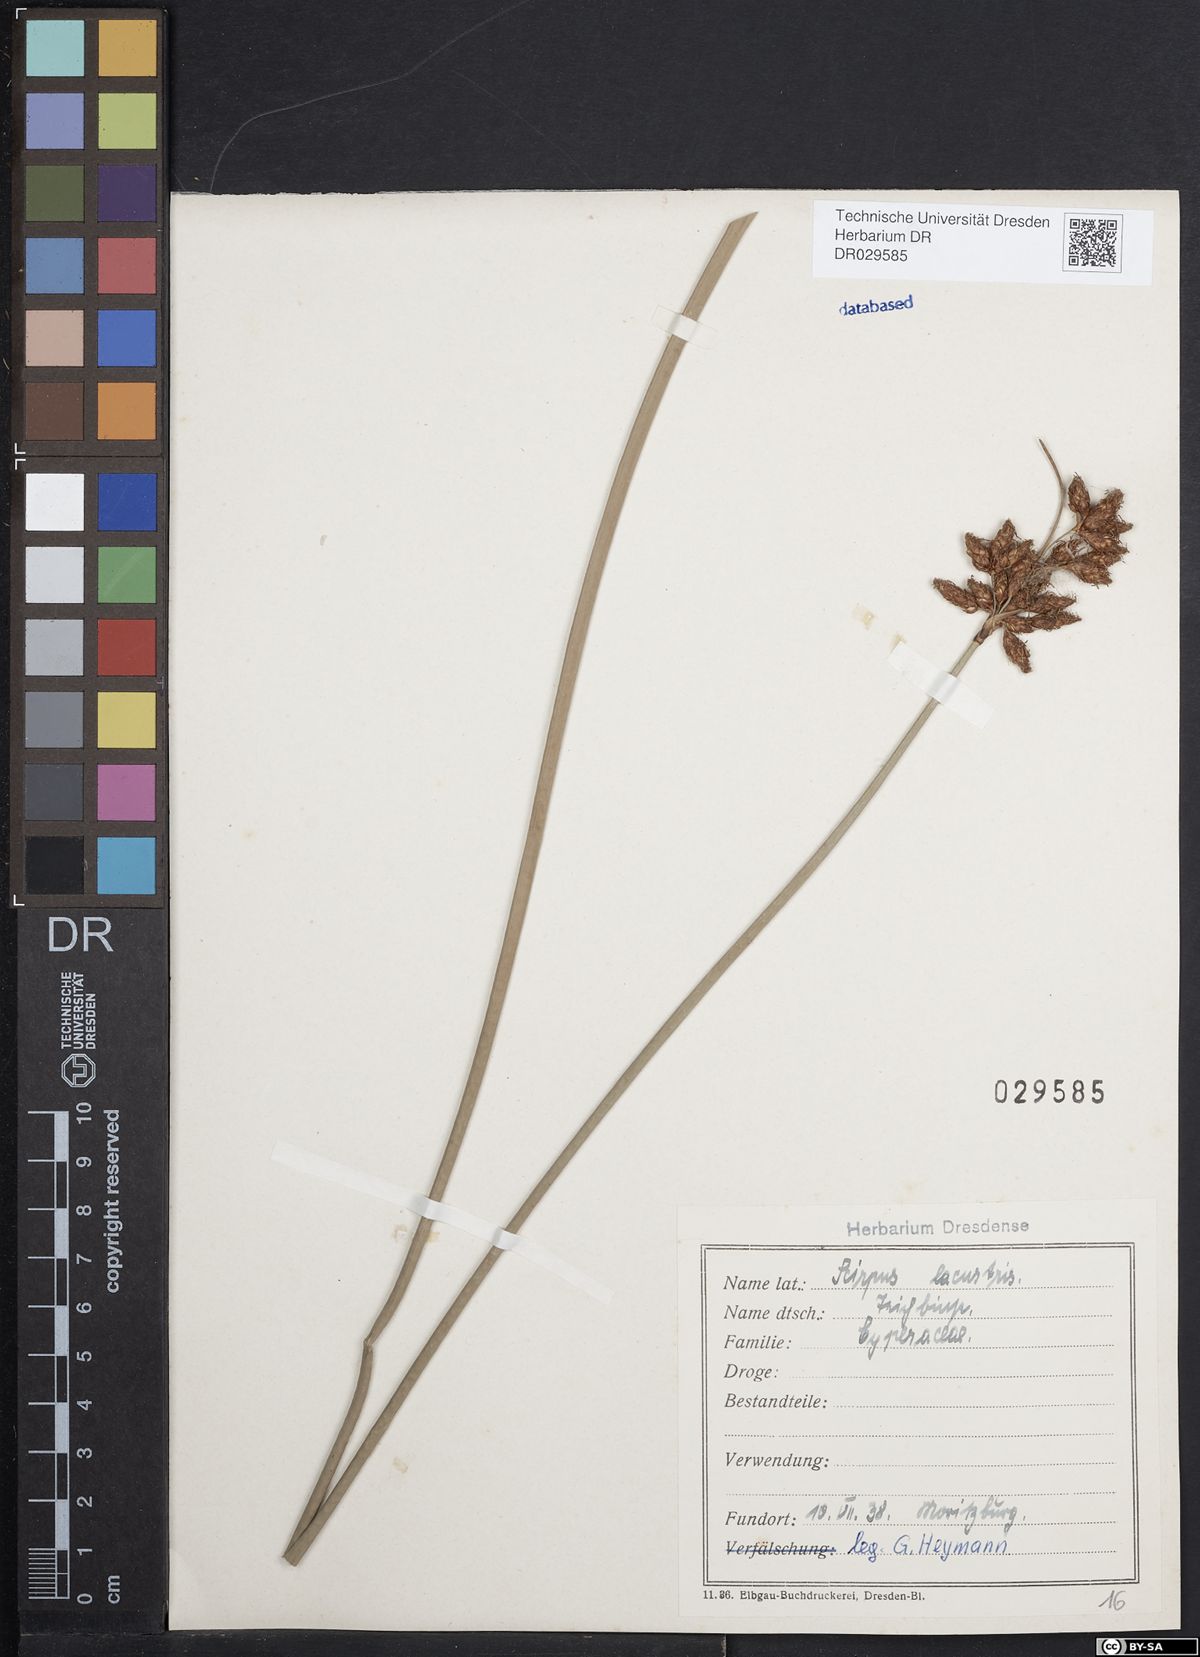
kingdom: Plantae
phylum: Tracheophyta
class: Liliopsida
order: Poales
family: Cyperaceae
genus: Schoenoplectus
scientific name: Schoenoplectus lacustris
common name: Common club-rush
